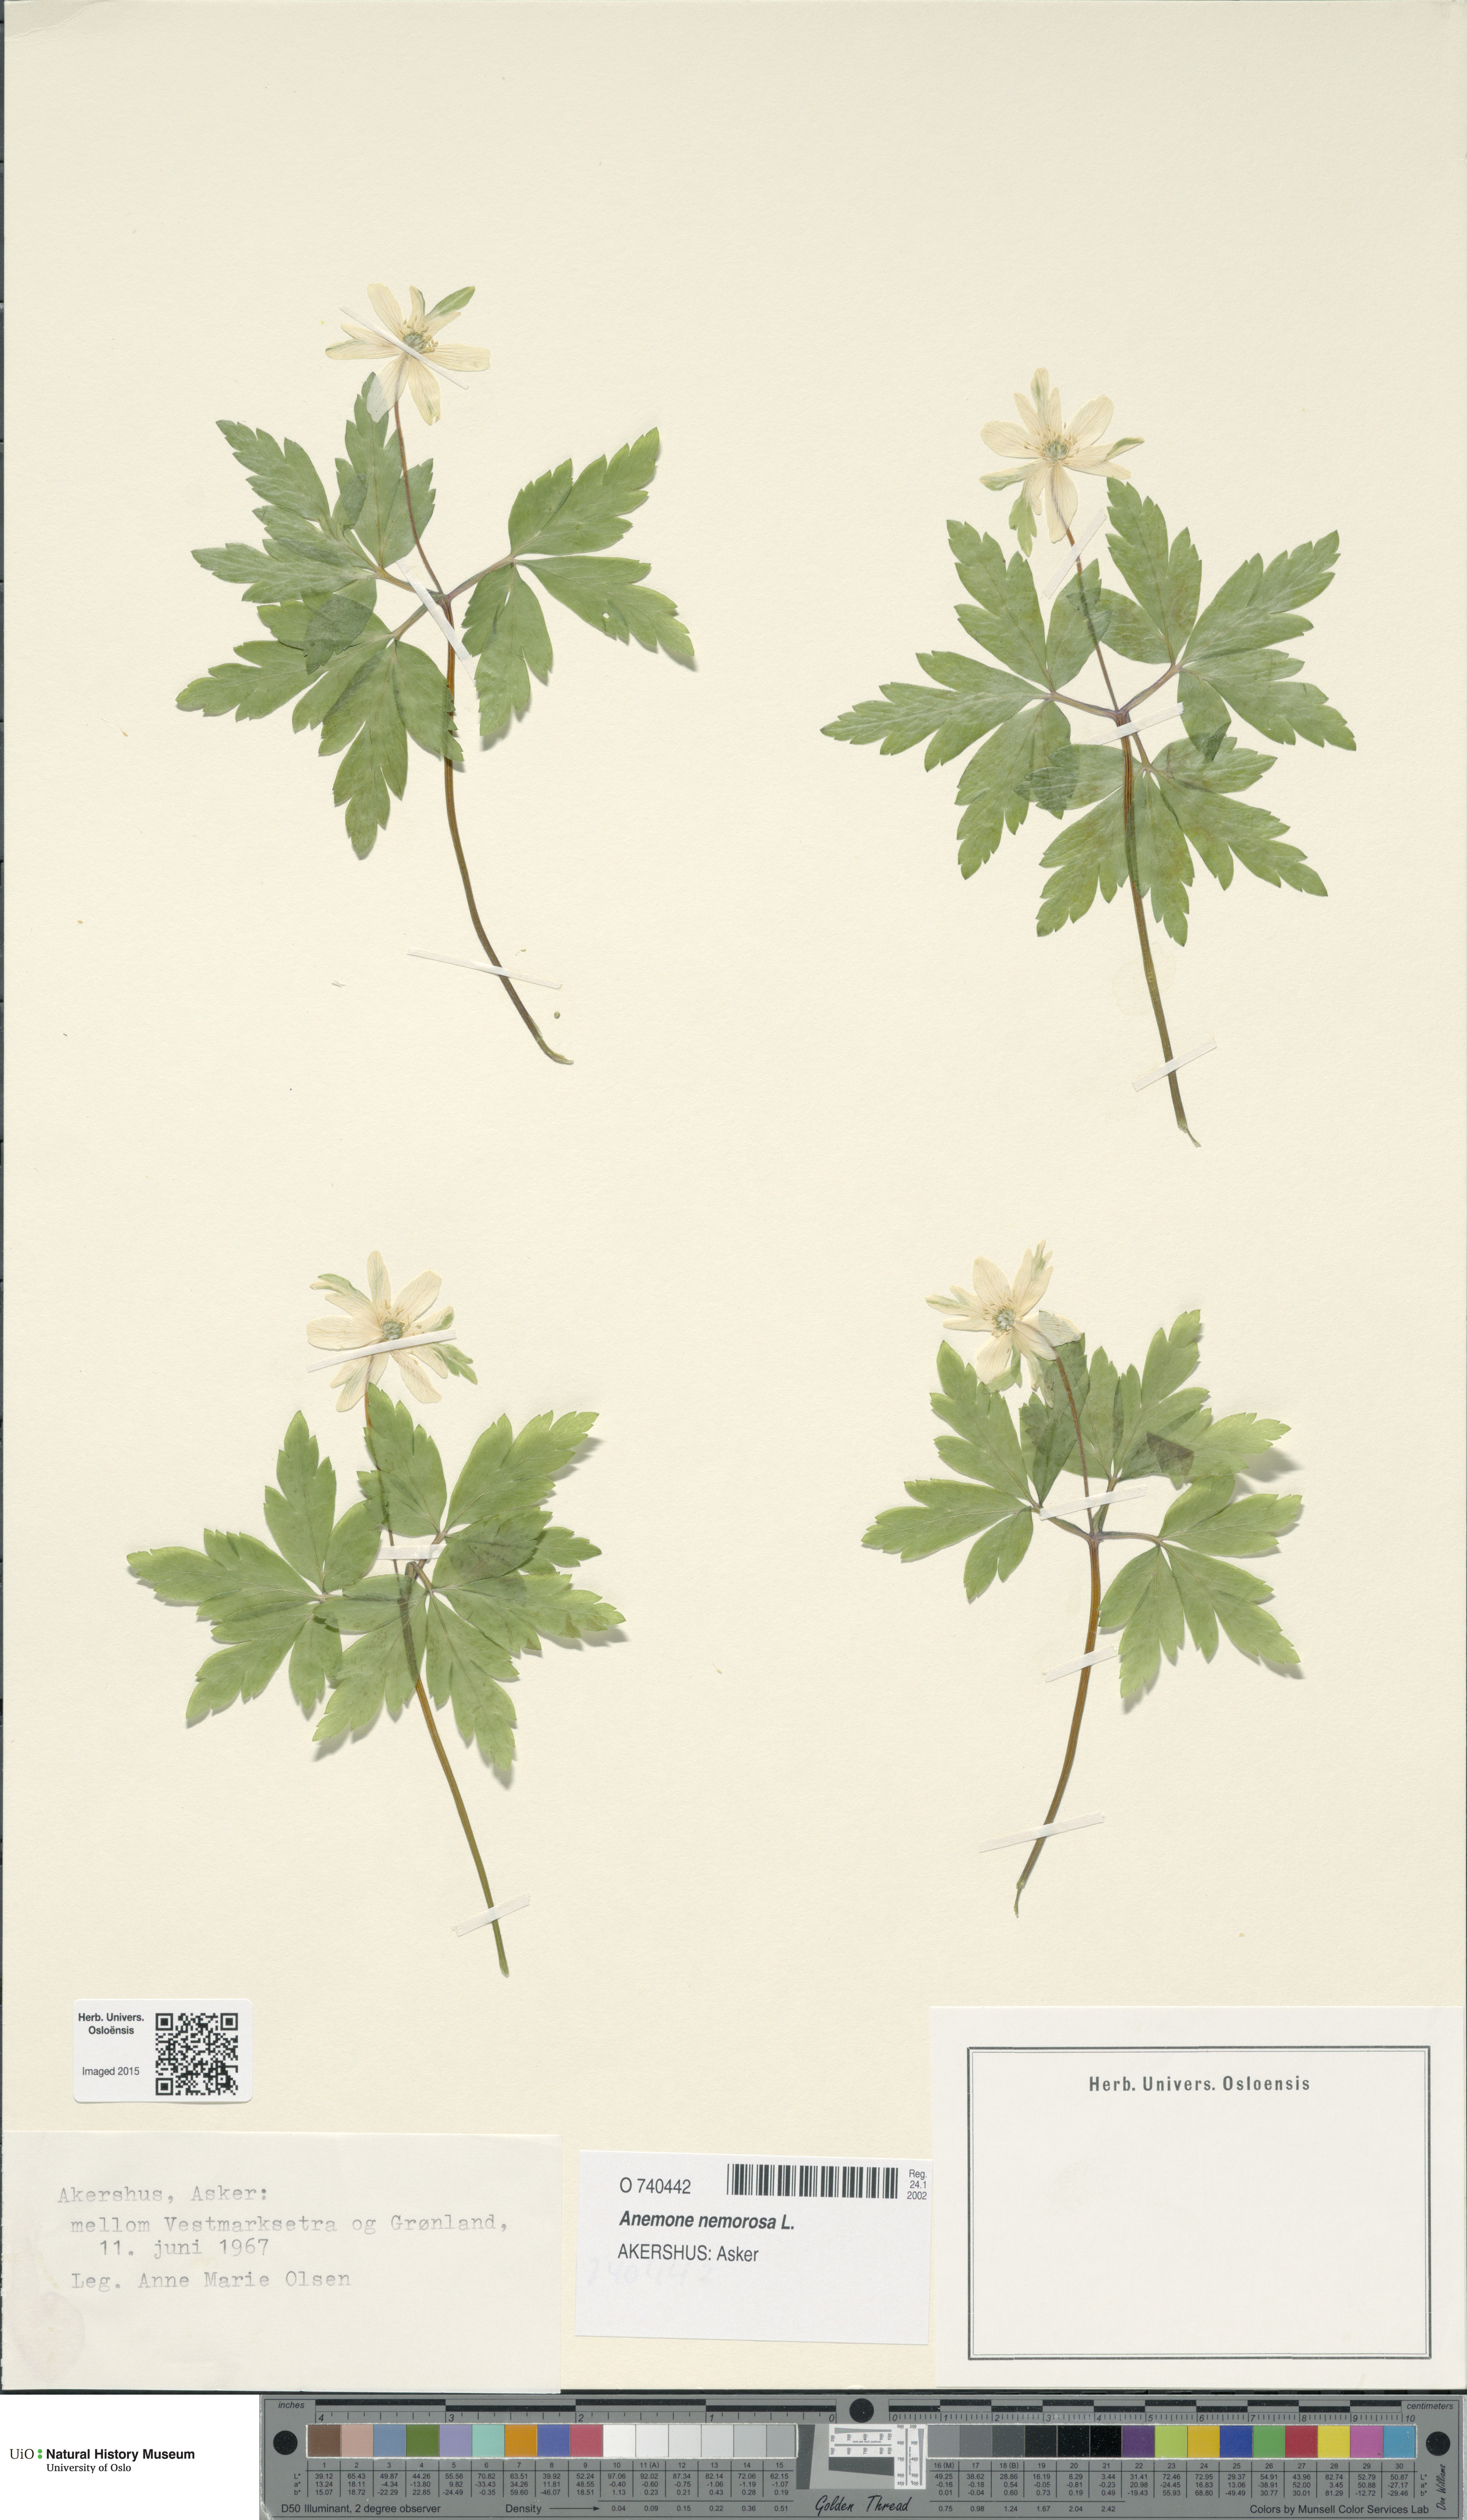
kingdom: Plantae
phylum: Tracheophyta
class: Magnoliopsida
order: Ranunculales
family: Ranunculaceae
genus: Anemone
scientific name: Anemone nemorosa
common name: Wood anemone
